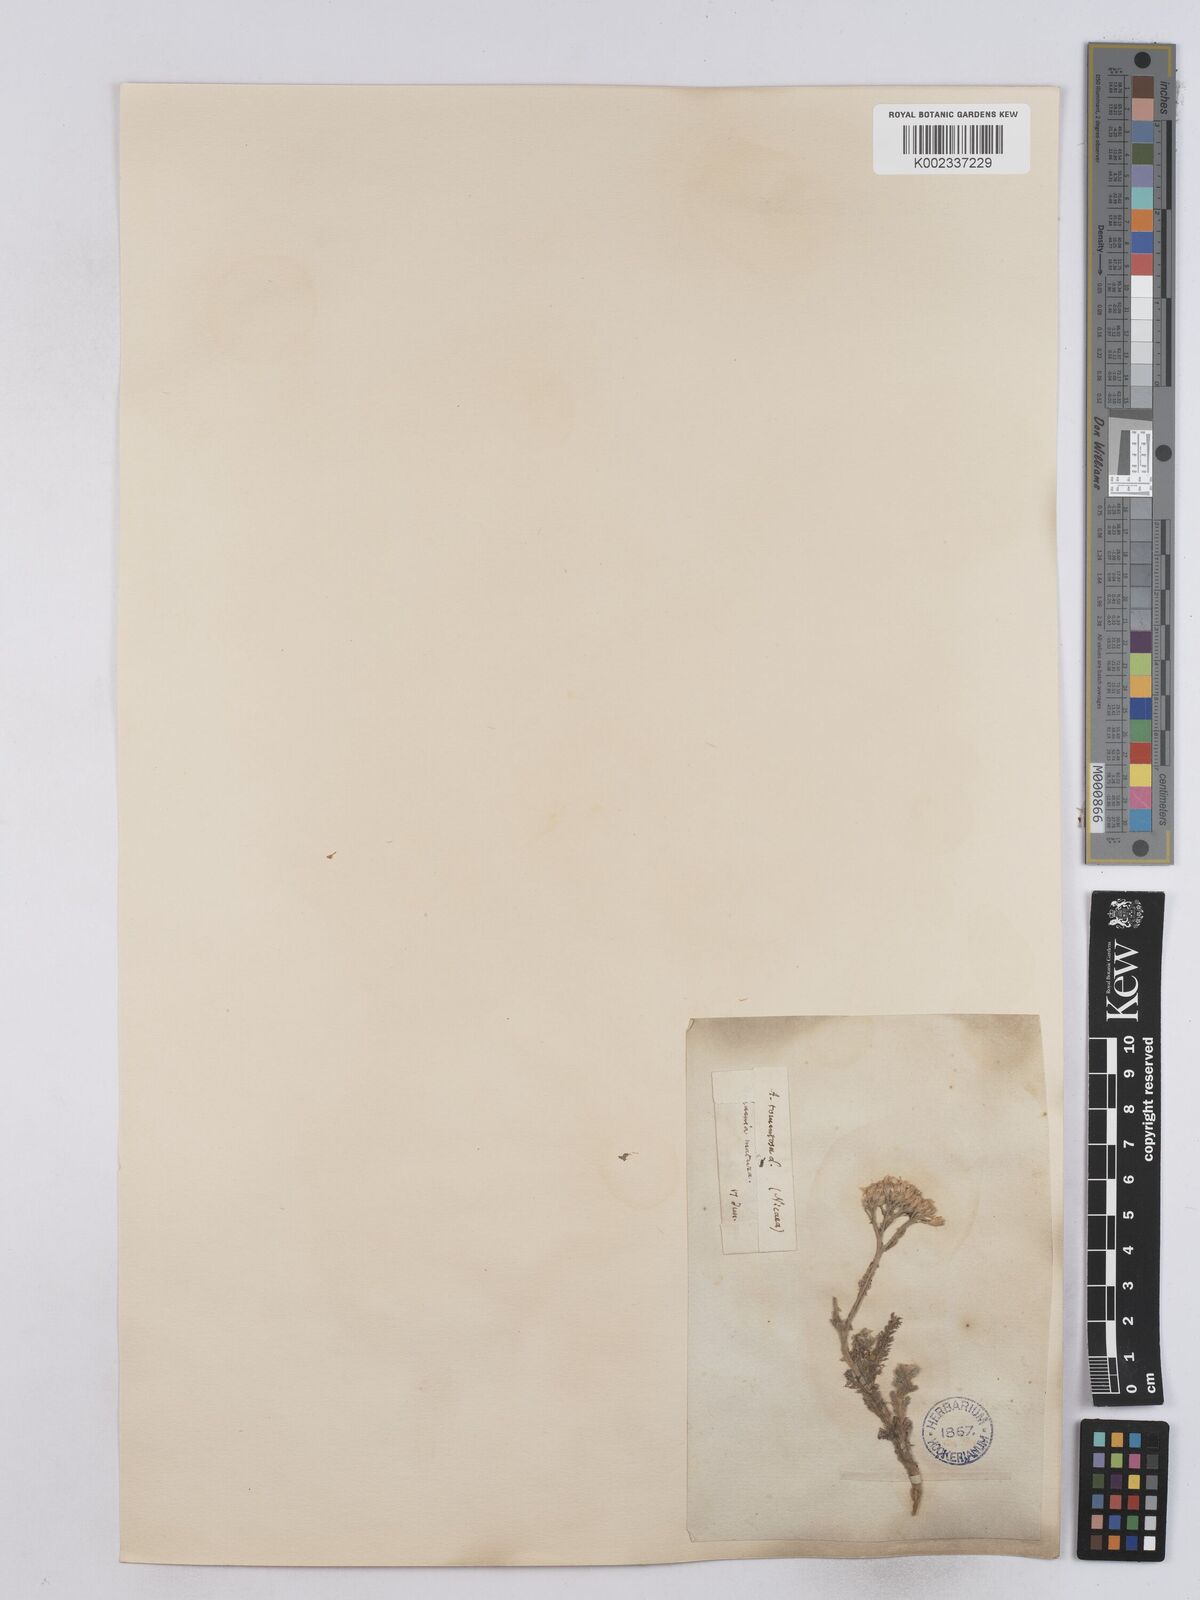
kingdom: Plantae
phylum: Tracheophyta
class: Magnoliopsida
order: Asterales
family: Asteraceae
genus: Achillea
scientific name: Achillea tomentosa
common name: Yellow milfoil
